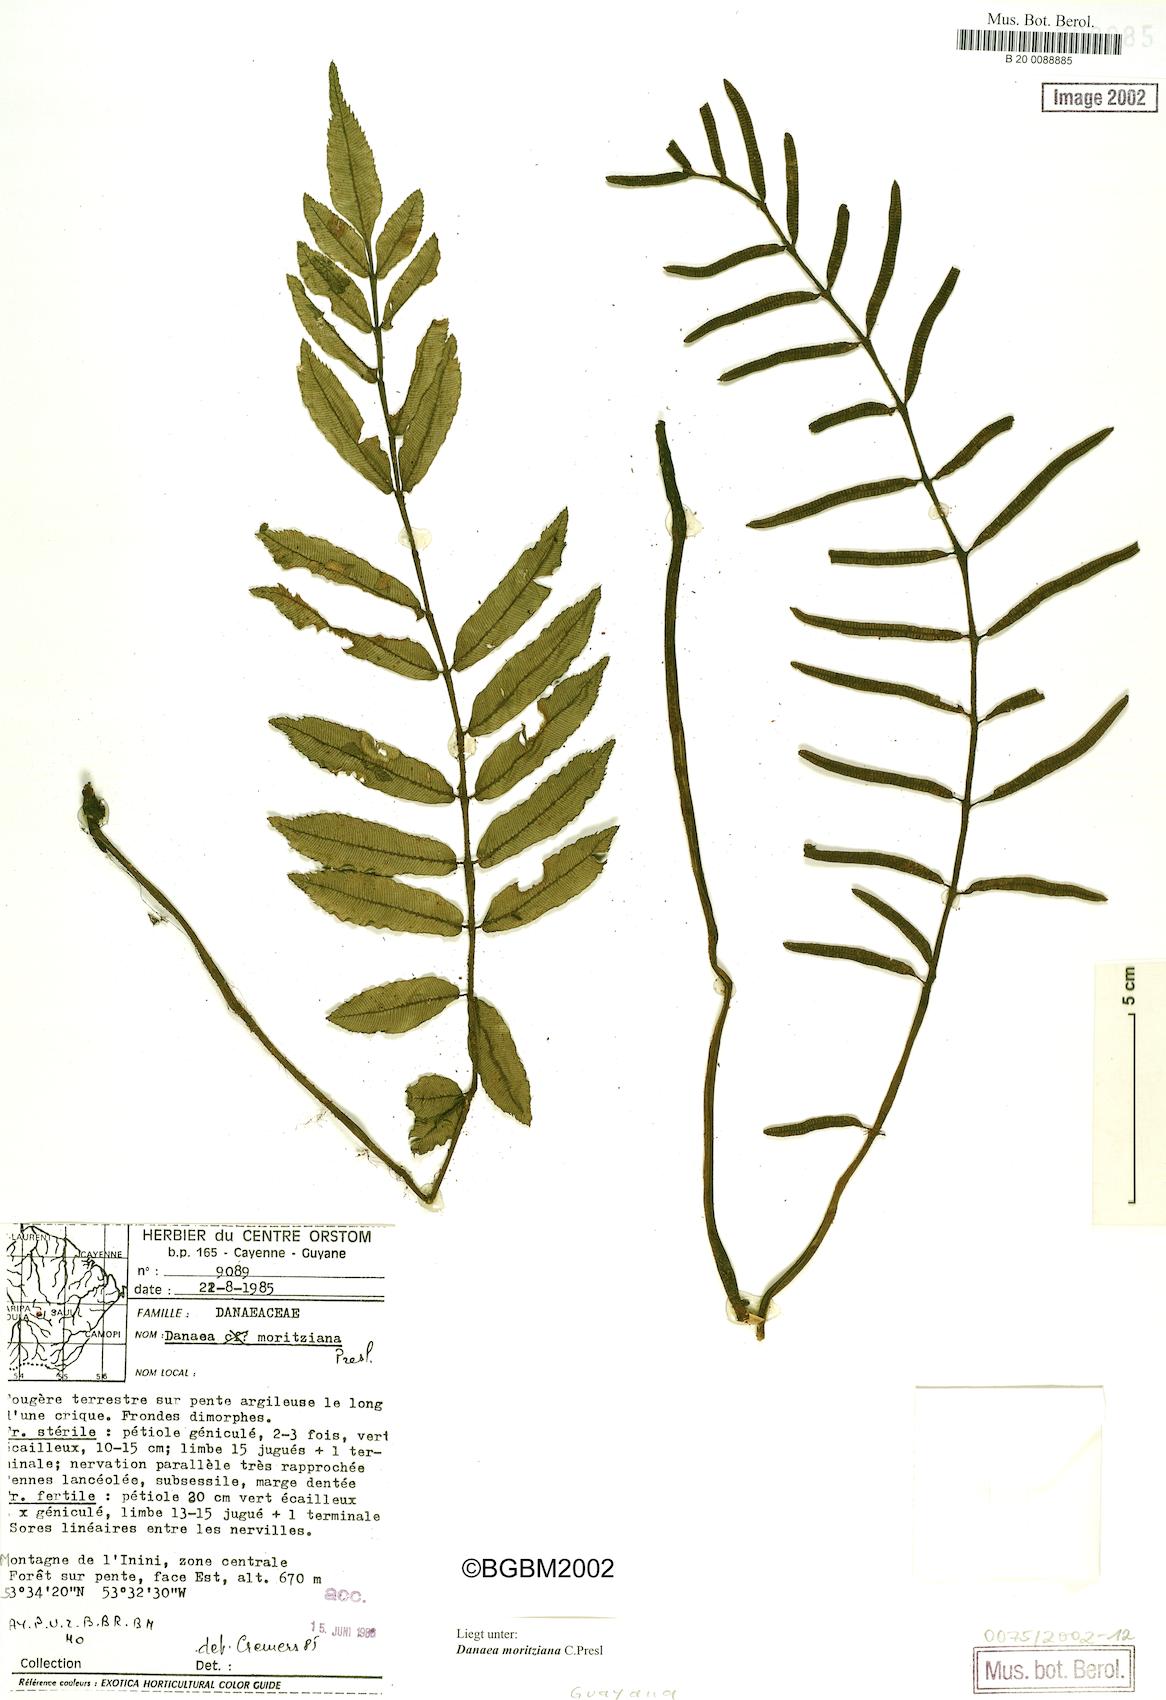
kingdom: Plantae
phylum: Tracheophyta
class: Polypodiopsida
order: Marattiales
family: Marattiaceae
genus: Danaea
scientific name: Danaea moritziana
